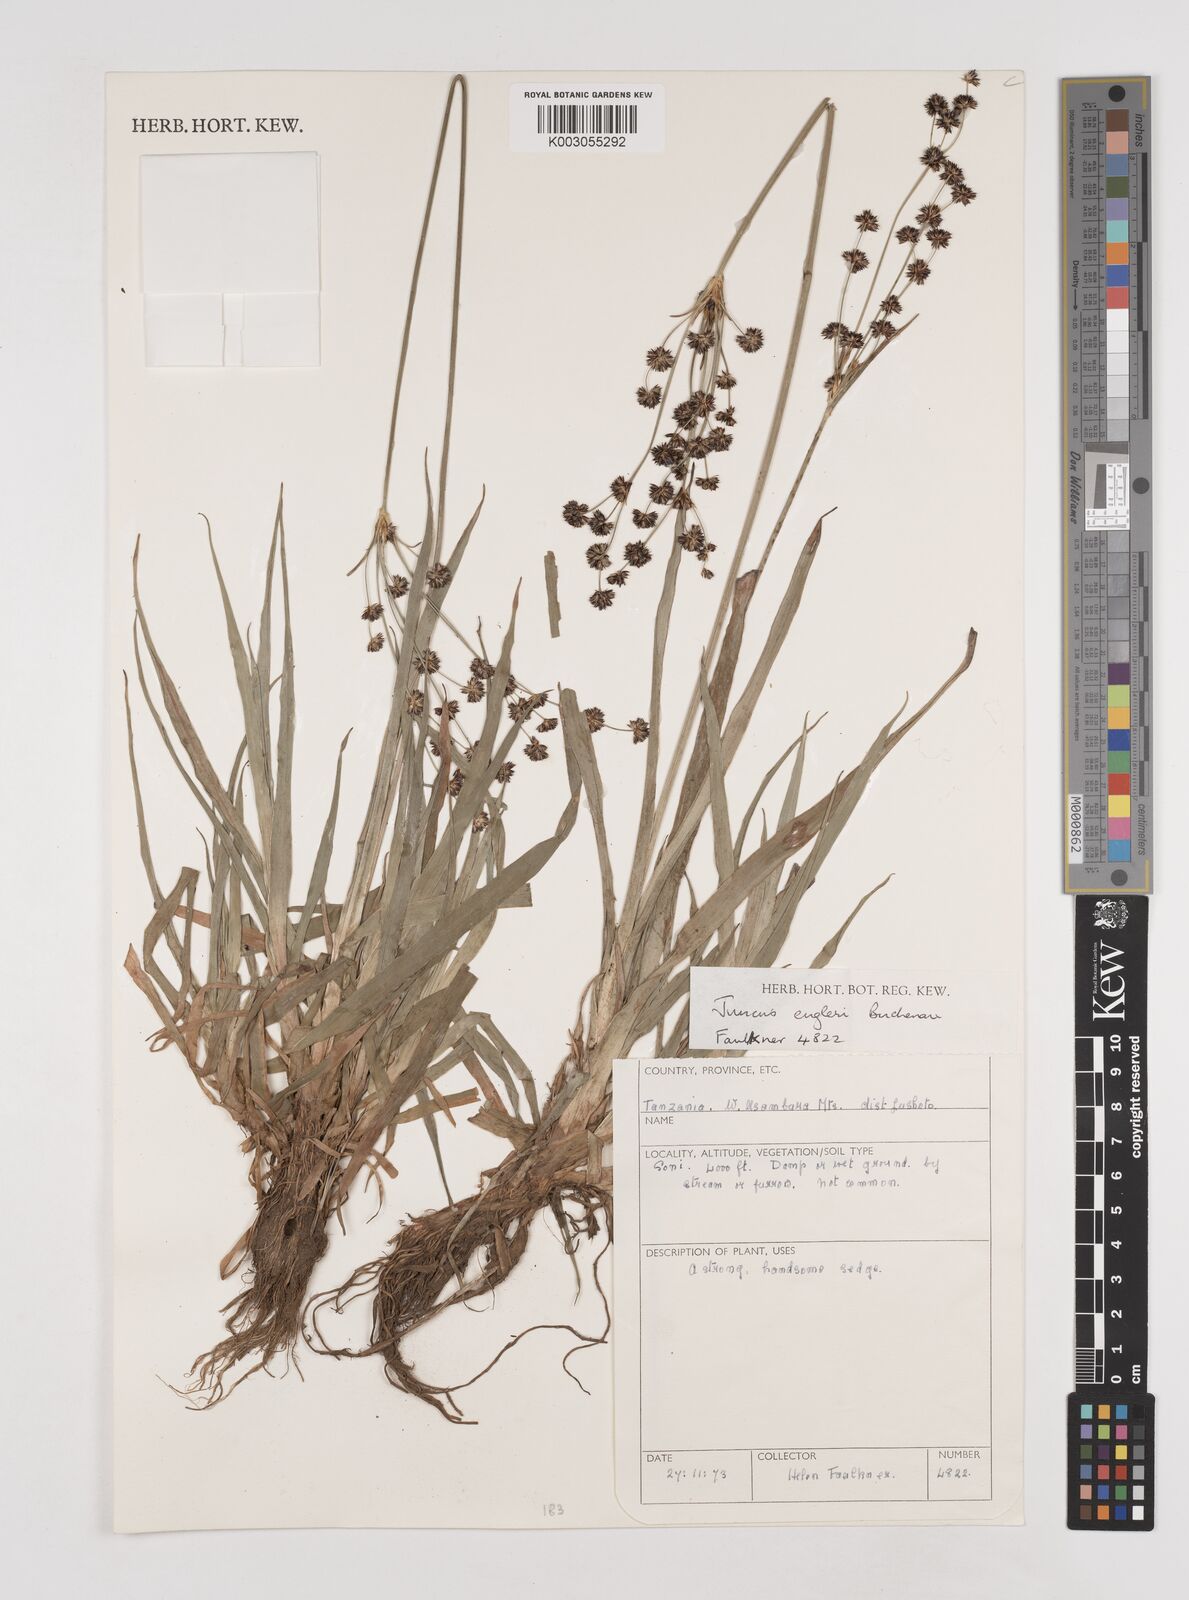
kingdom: Plantae
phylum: Tracheophyta
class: Liliopsida
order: Poales
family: Juncaceae
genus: Juncus
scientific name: Juncus engleri
